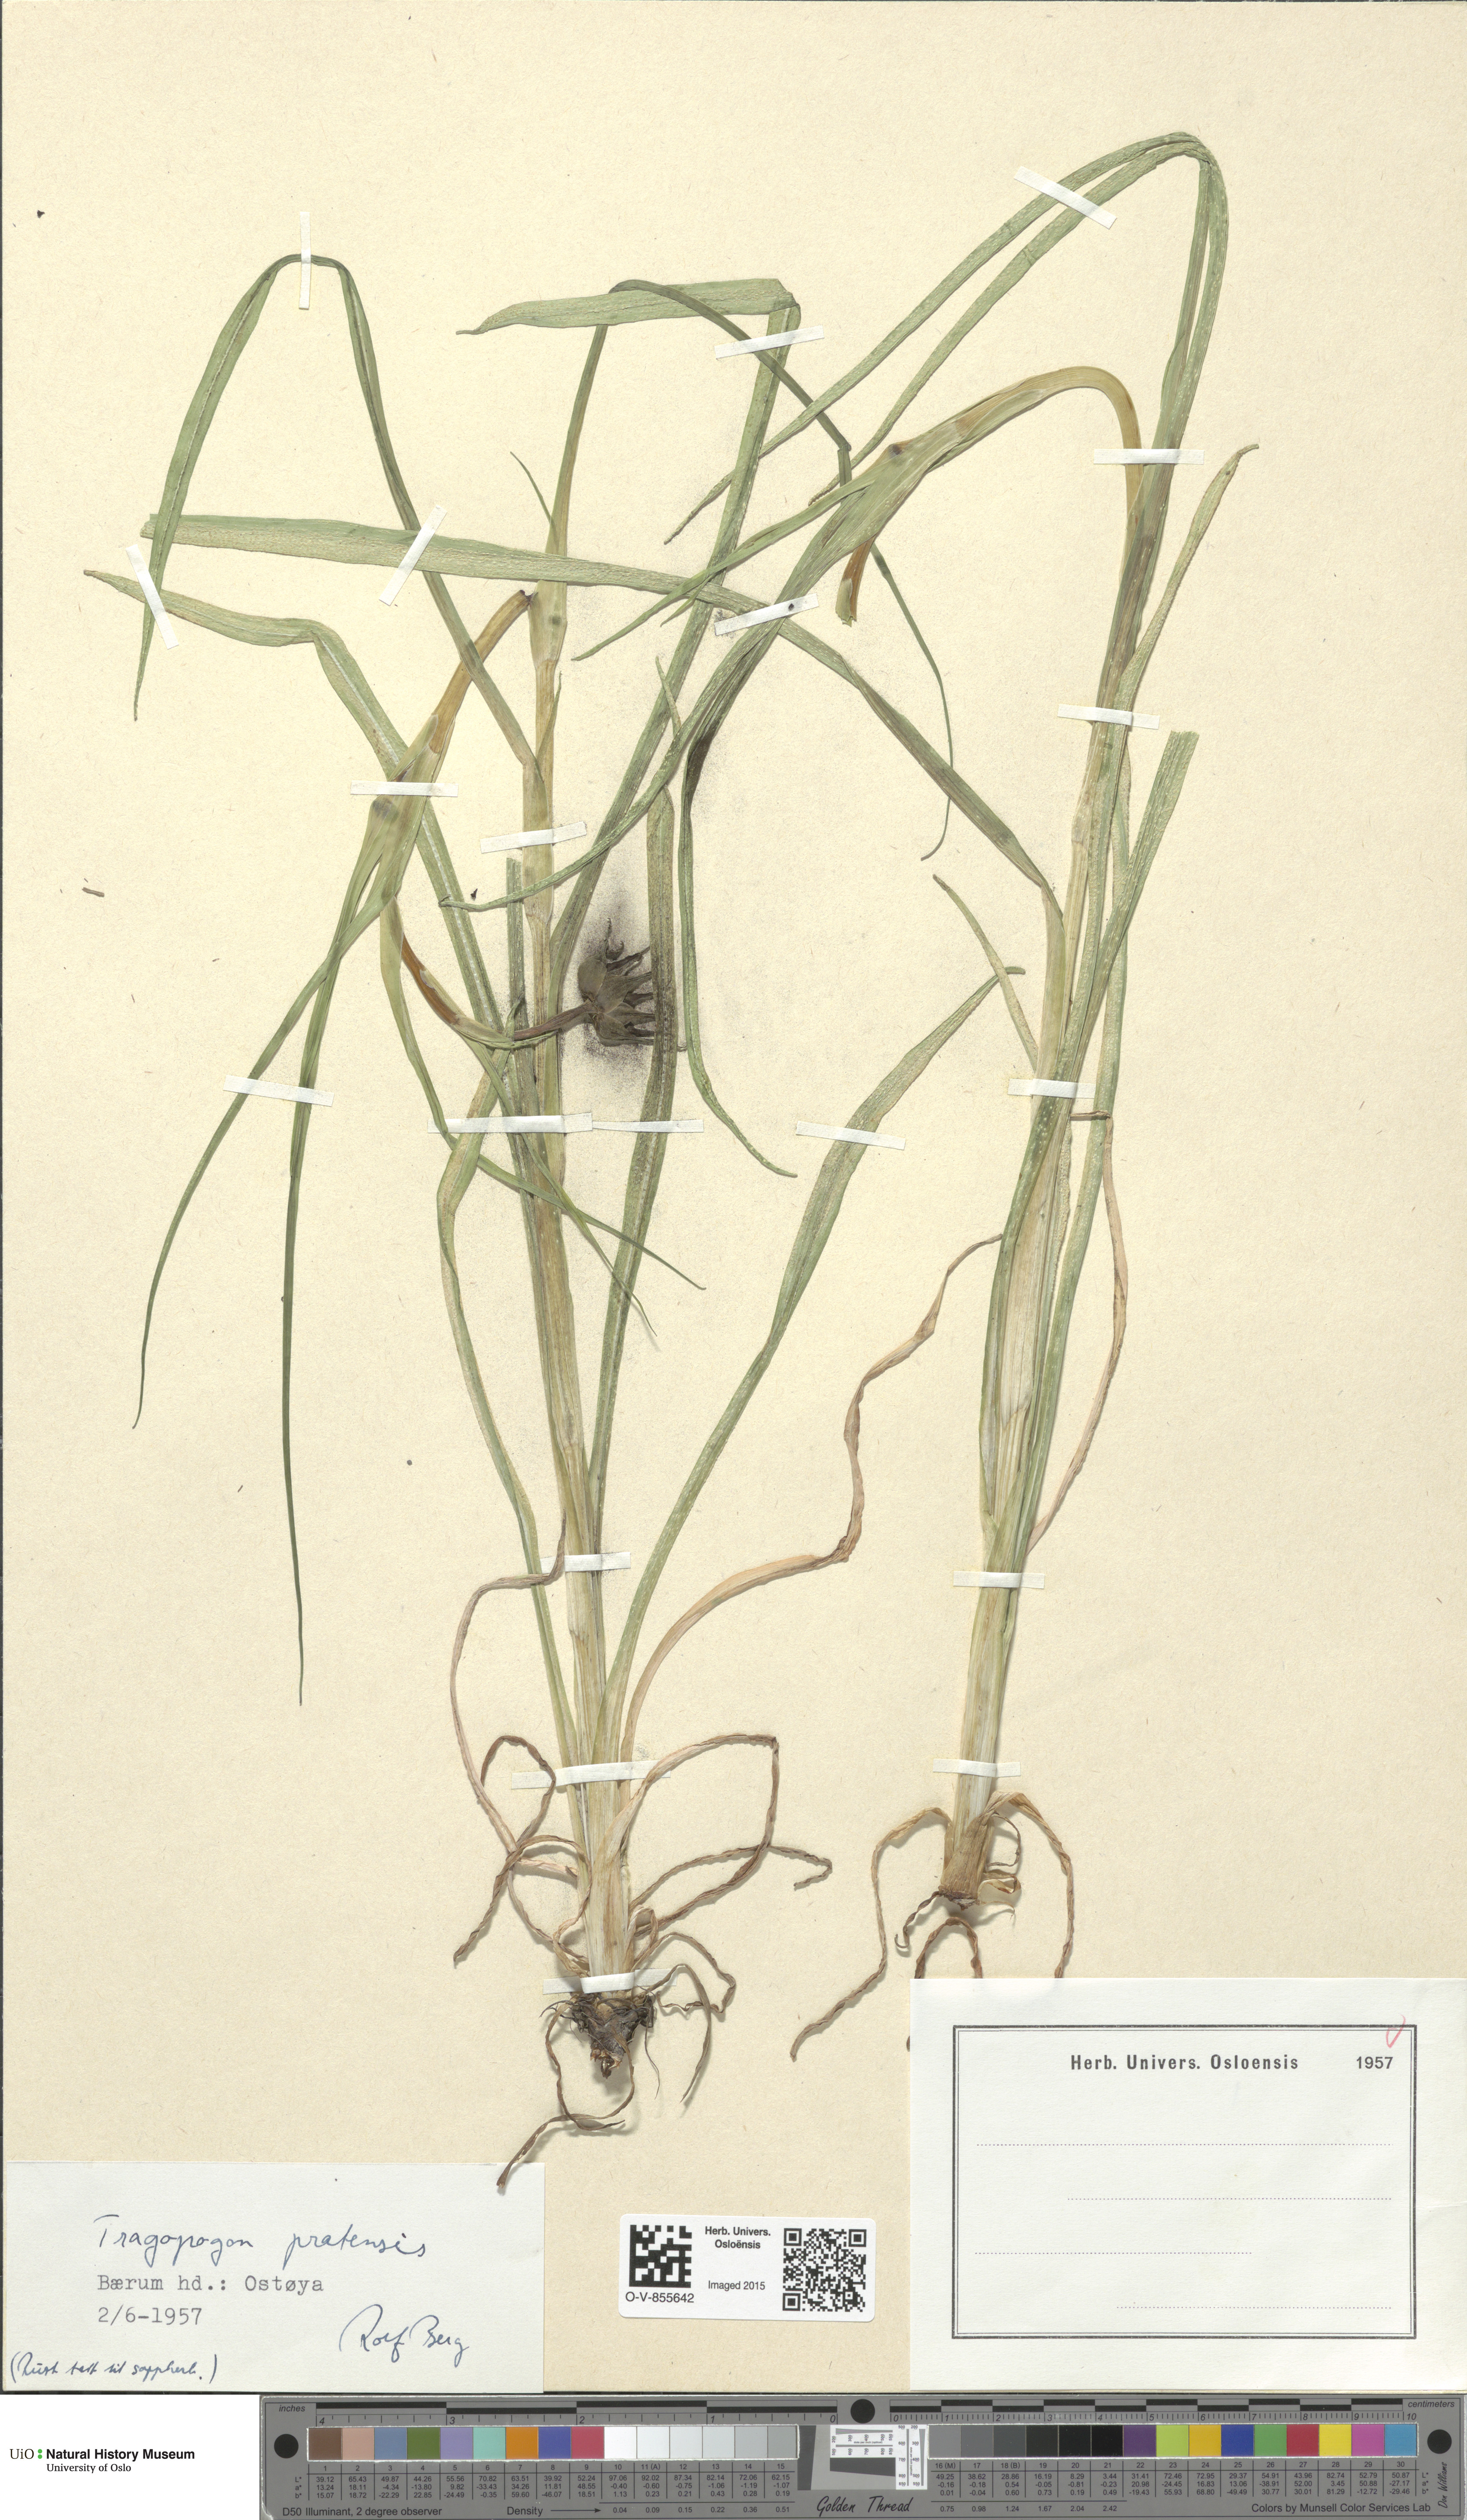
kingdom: Plantae
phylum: Tracheophyta
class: Magnoliopsida
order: Asterales
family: Asteraceae
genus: Tragopogon
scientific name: Tragopogon pratensis
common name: Goat's-beard
